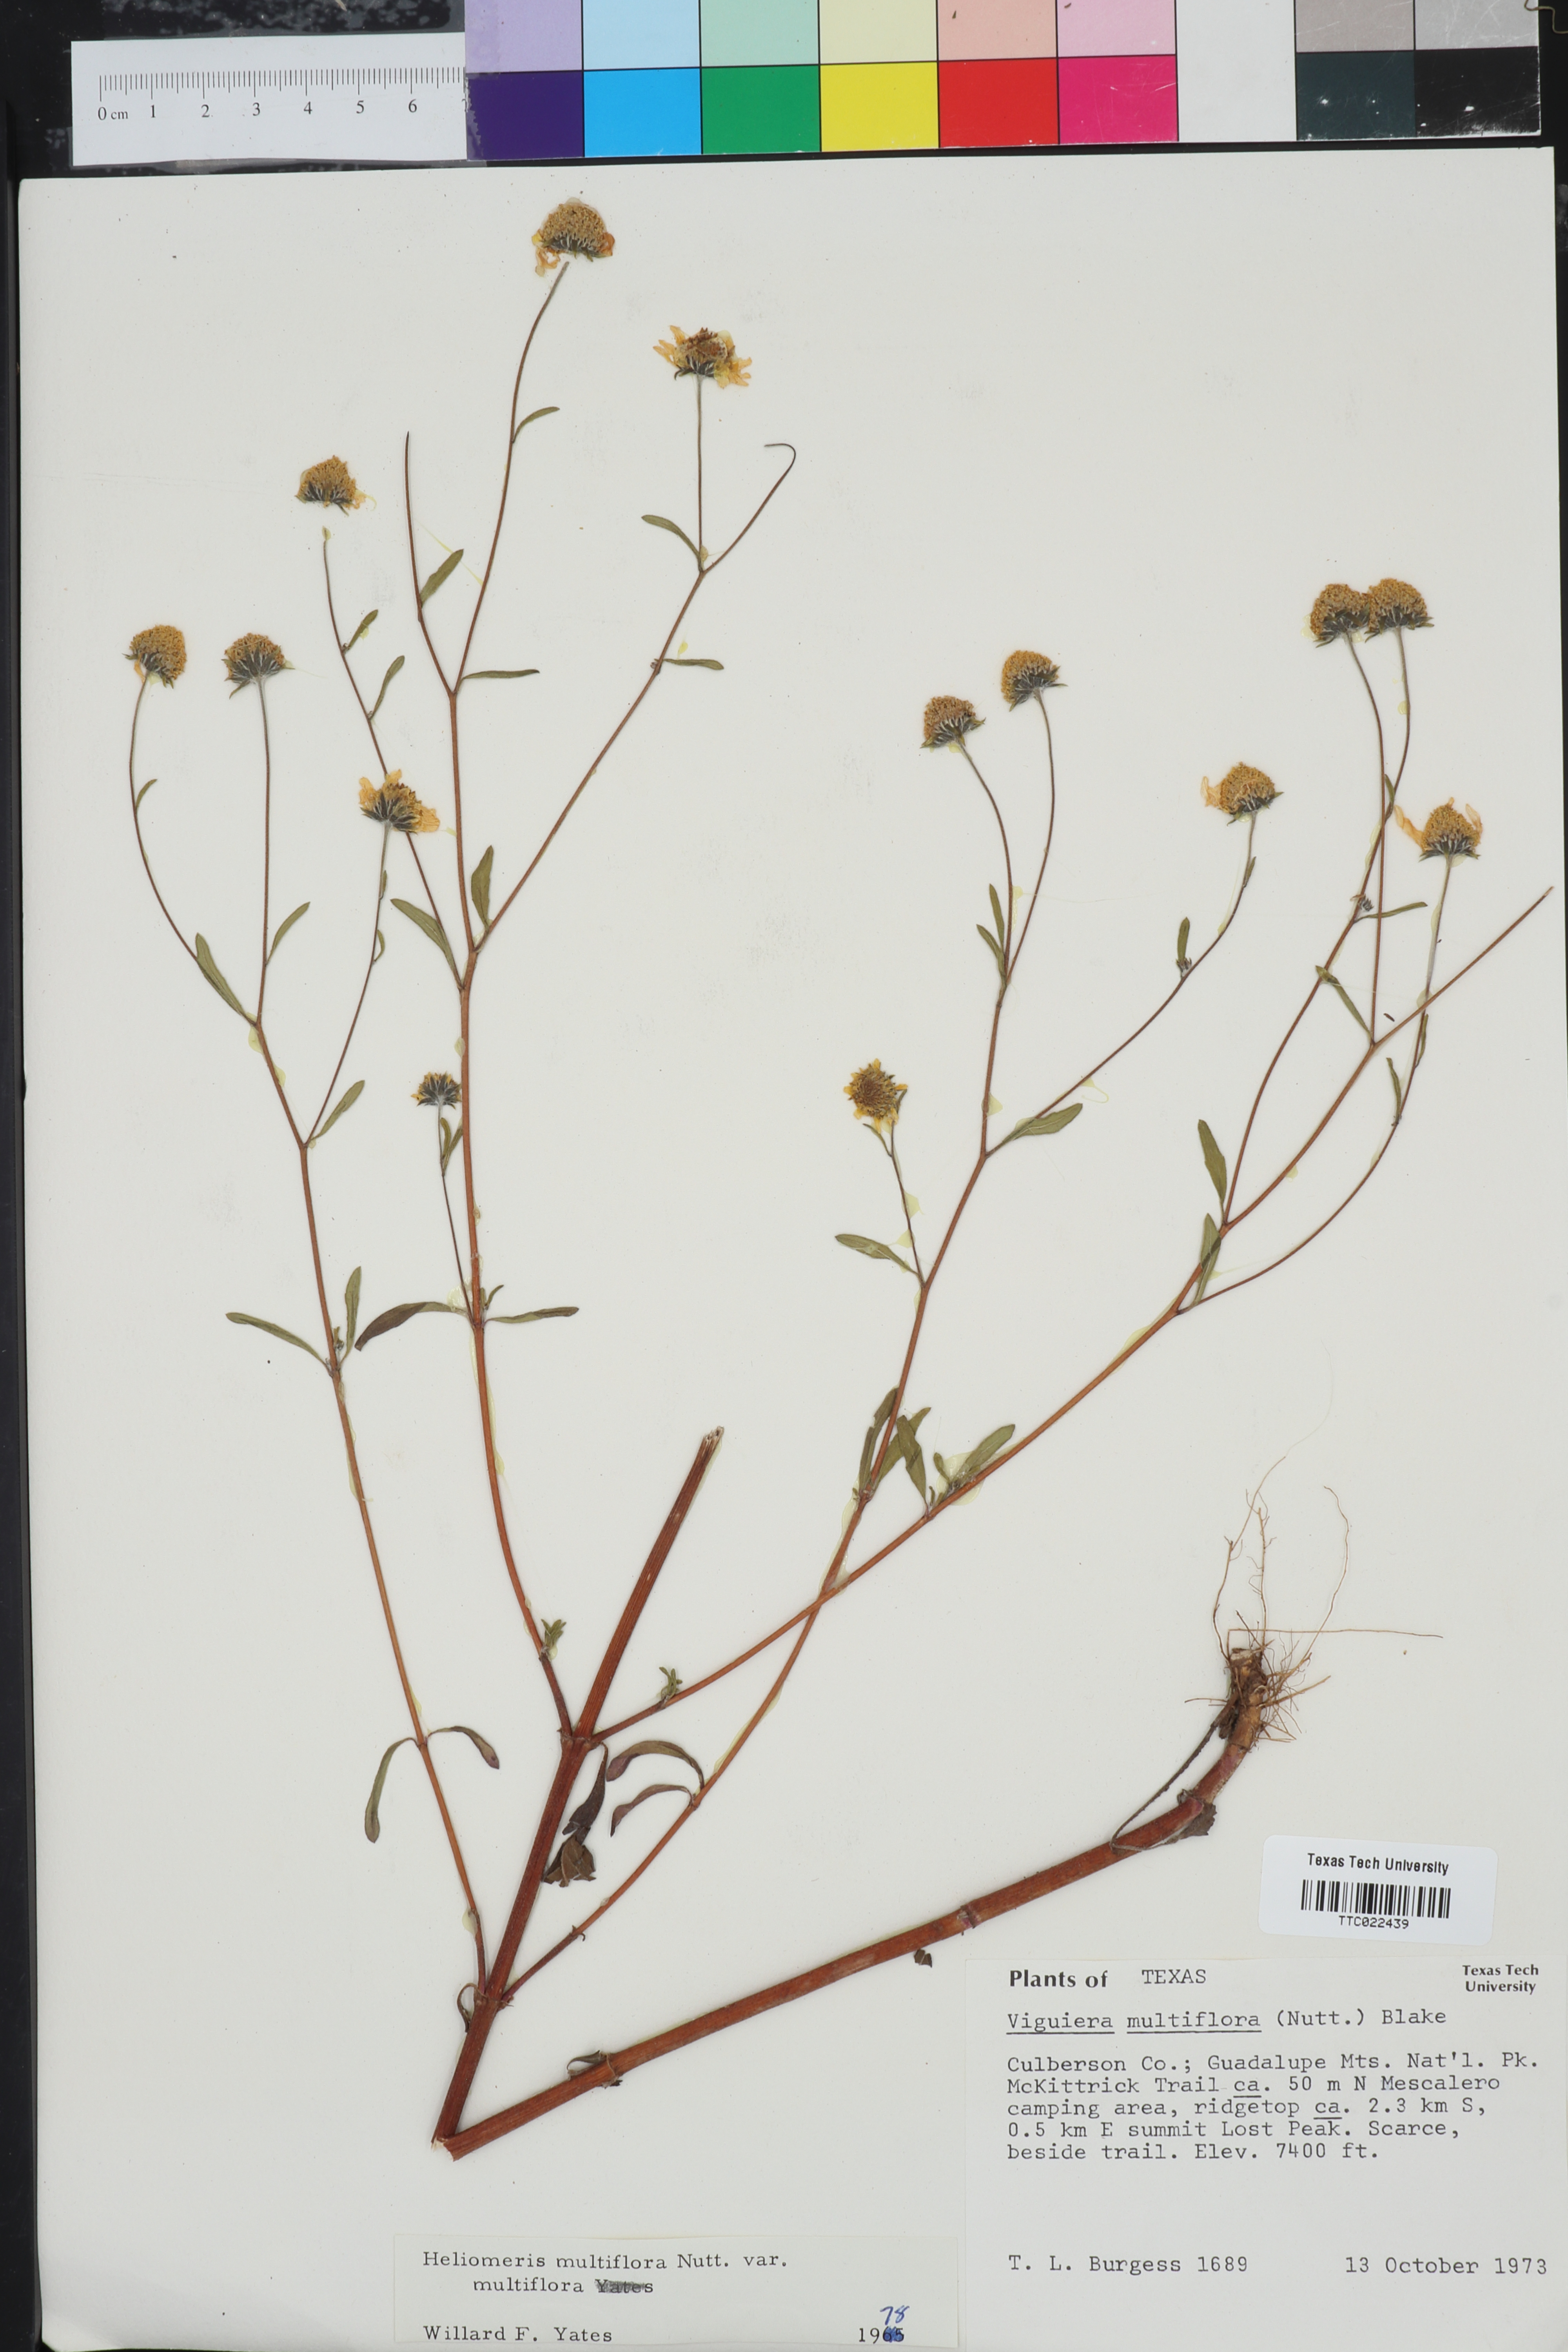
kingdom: Plantae
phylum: Tracheophyta
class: Magnoliopsida
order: Asterales
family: Asteraceae
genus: Heliomeris
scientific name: Heliomeris multiflora
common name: Showy goldeneye
